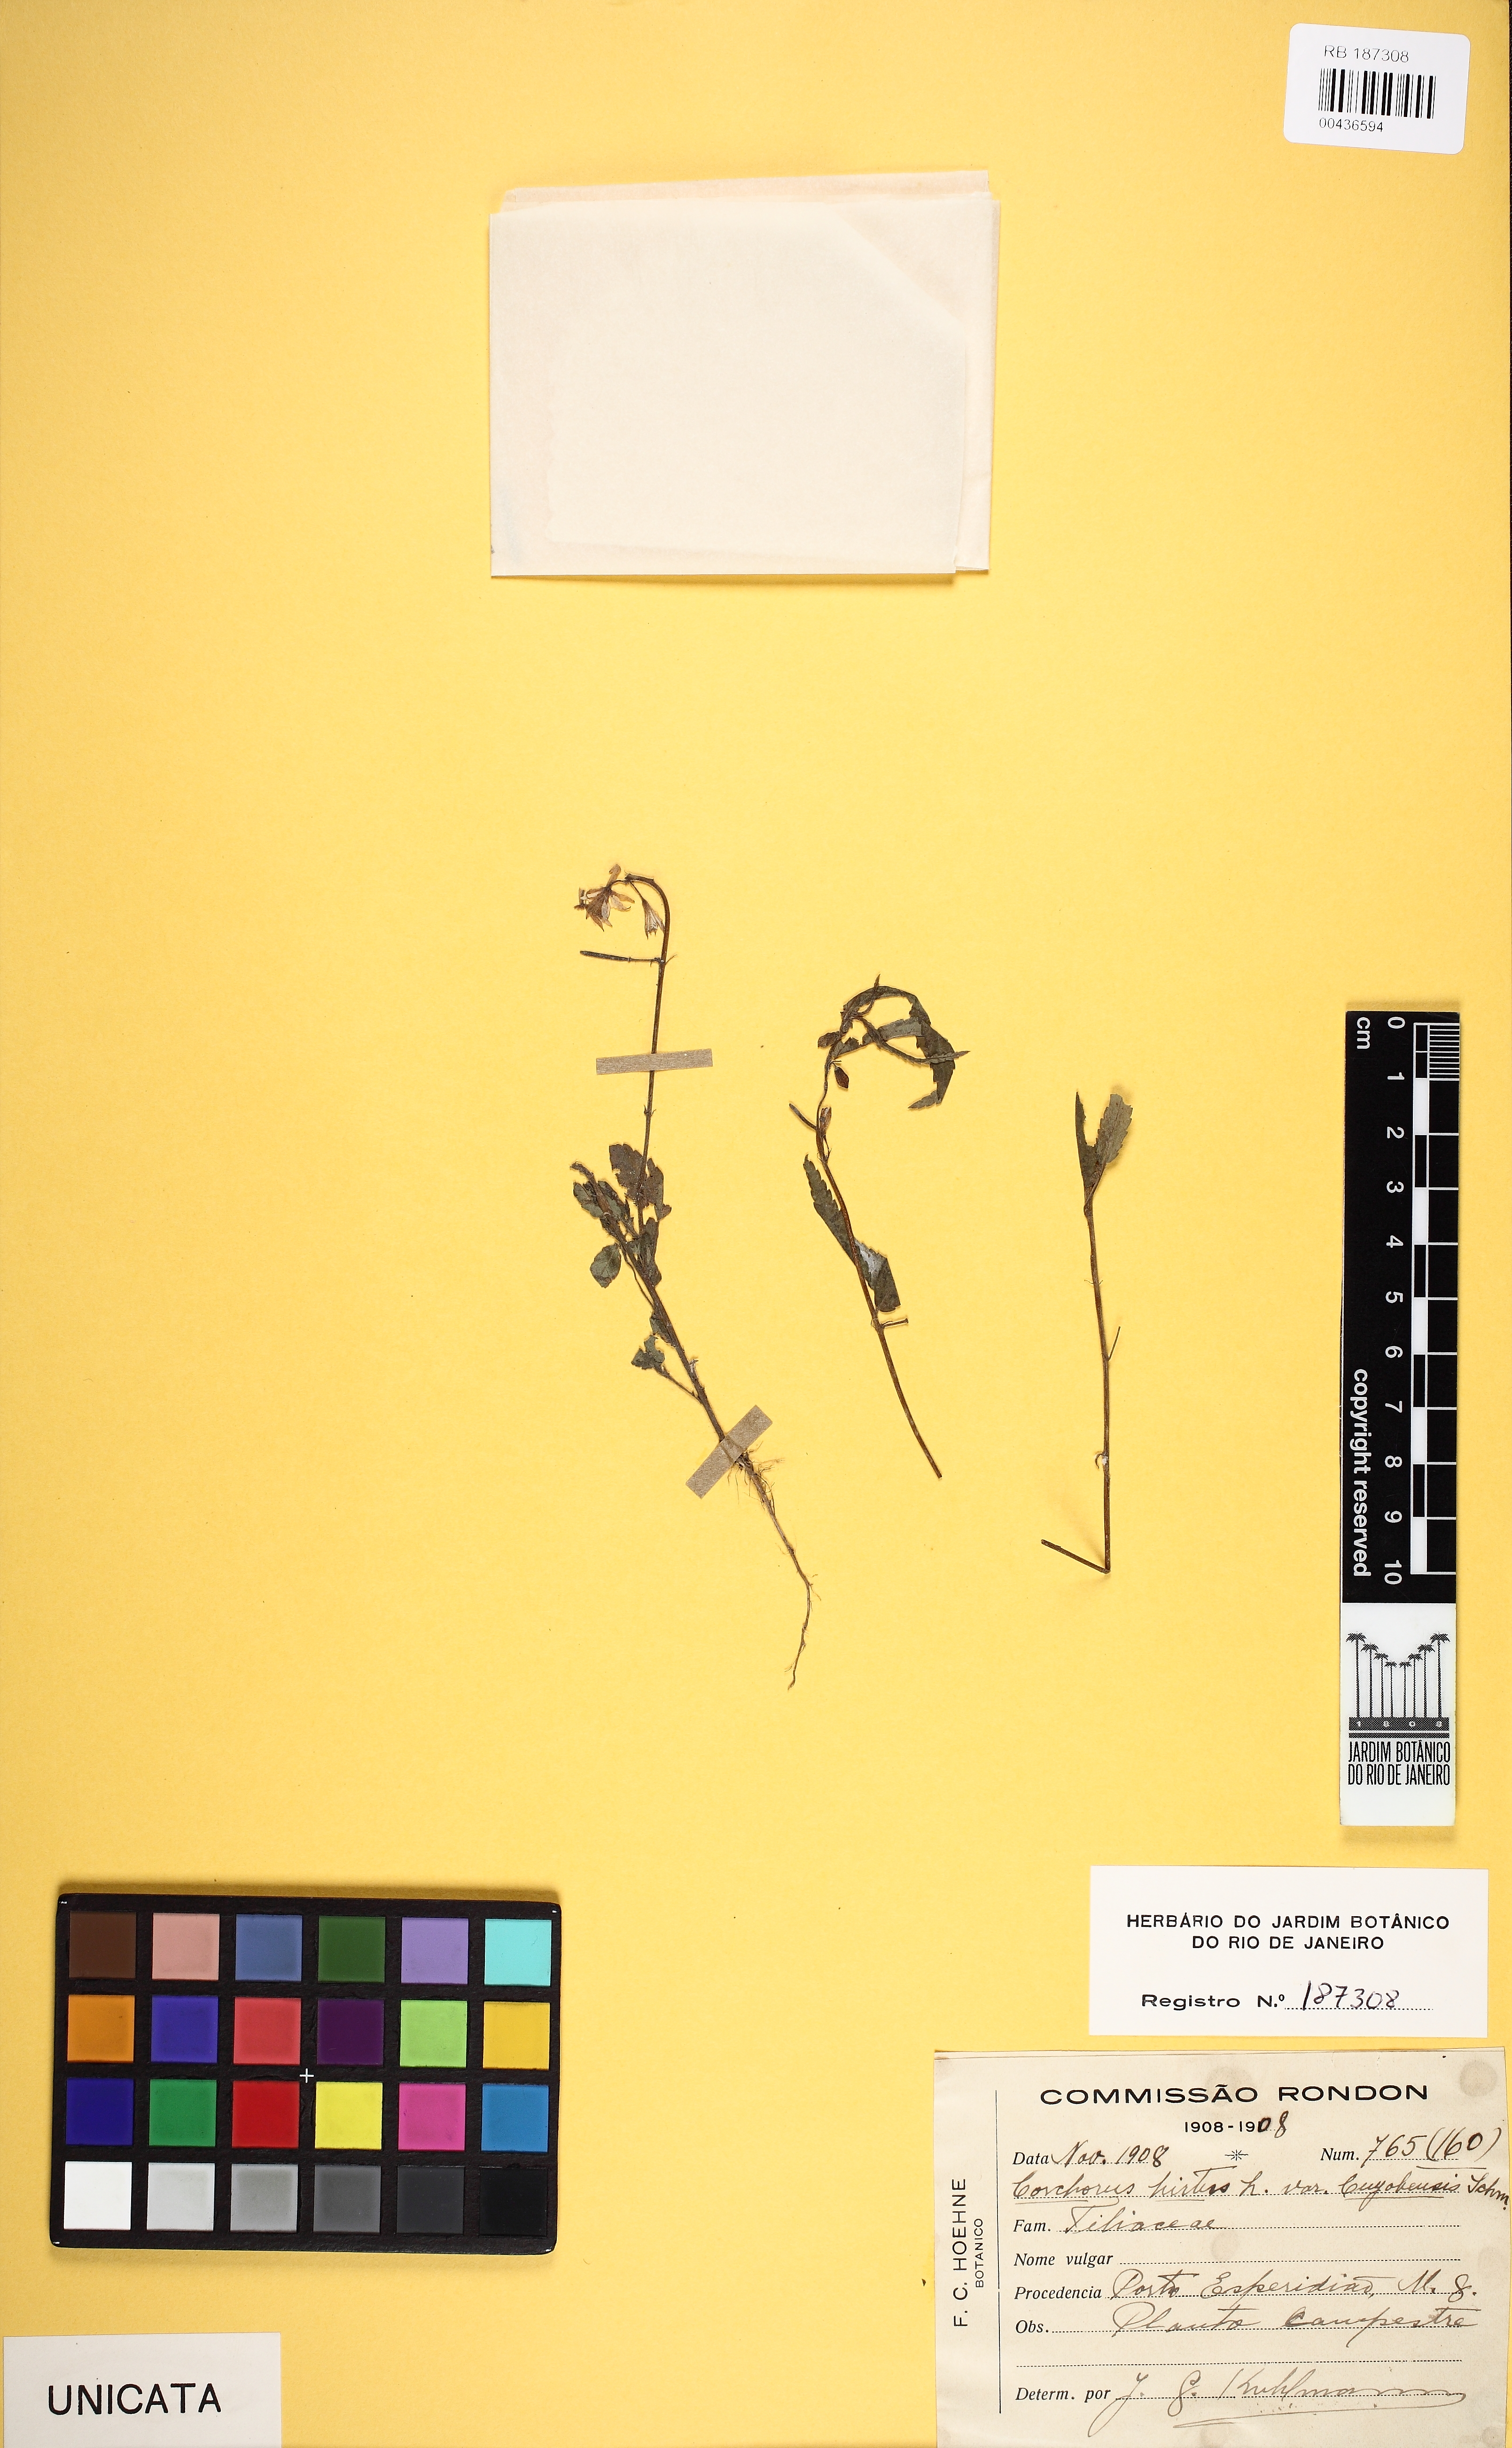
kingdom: Plantae
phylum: Tracheophyta
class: Magnoliopsida
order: Malvales
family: Malvaceae
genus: Corchorus
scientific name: Corchorus hirtus
